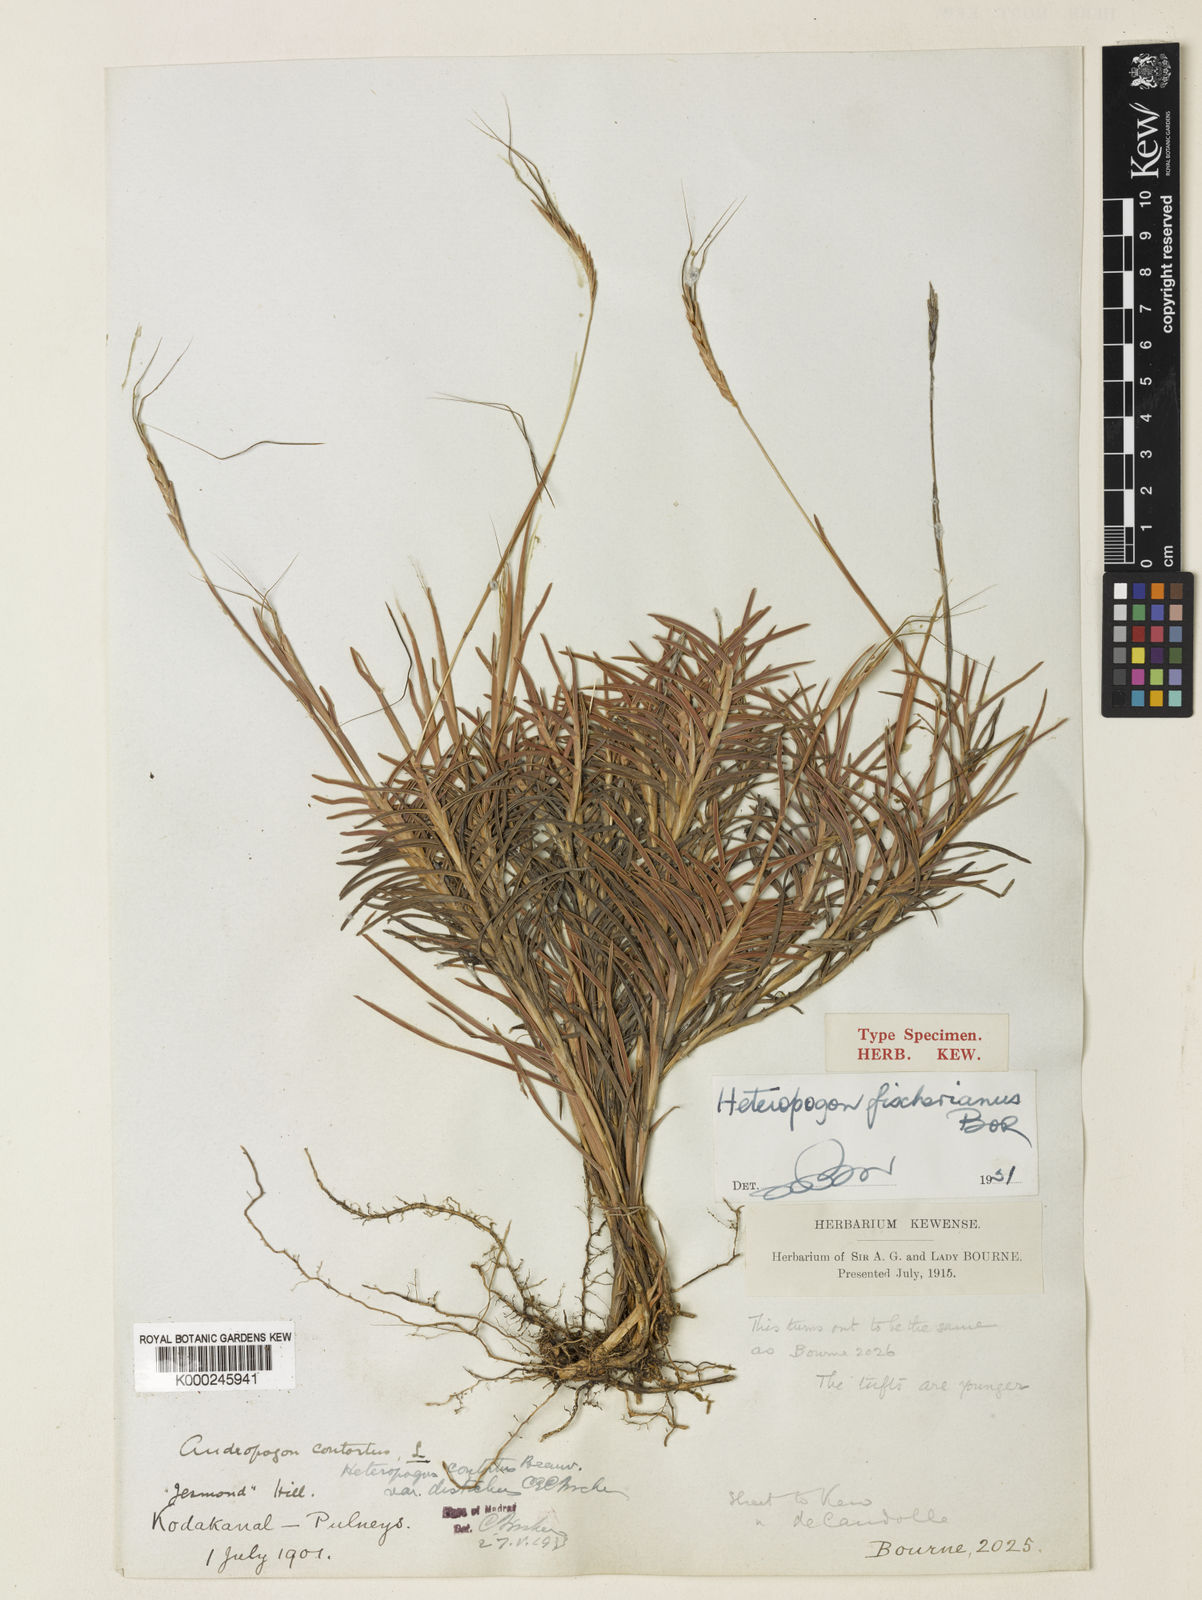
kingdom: Plantae
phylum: Tracheophyta
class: Liliopsida
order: Poales
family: Poaceae
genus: Heteropogon
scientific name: Heteropogon contortus
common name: Tanglehead
